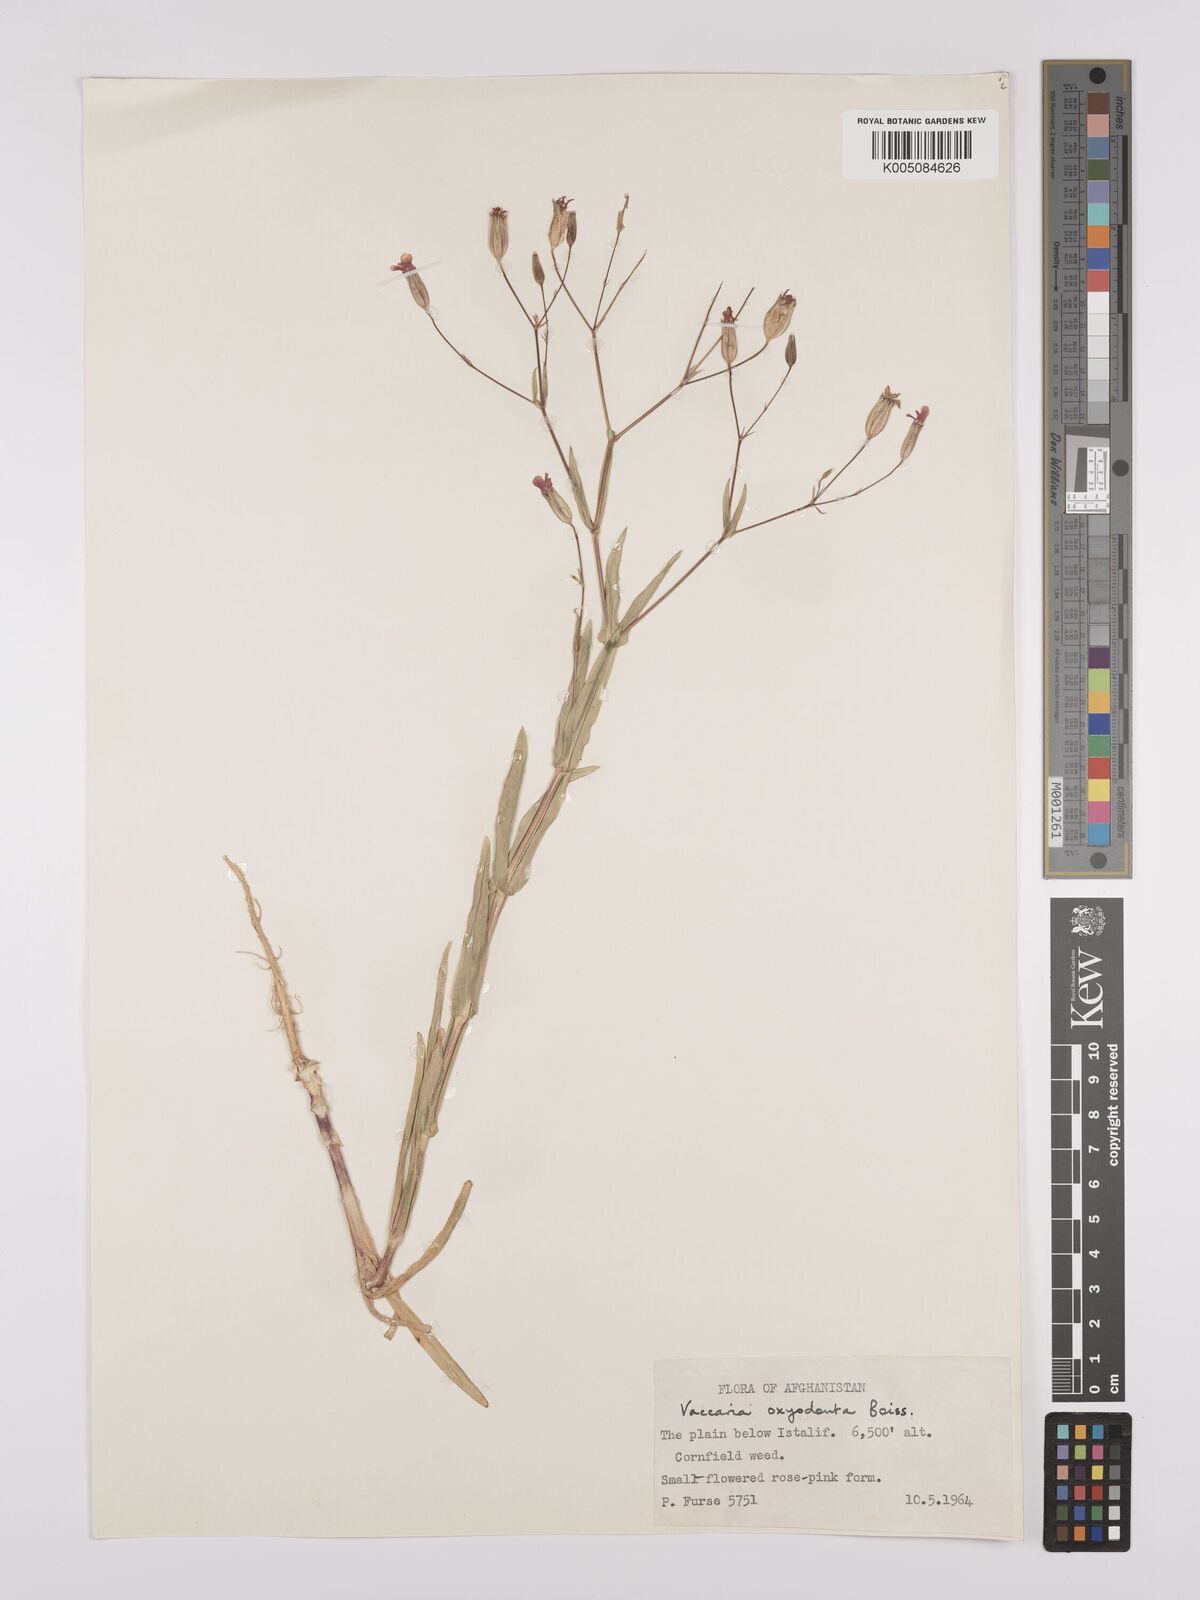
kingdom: Plantae
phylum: Tracheophyta
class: Magnoliopsida
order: Caryophyllales
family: Caryophyllaceae
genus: Gypsophila
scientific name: Gypsophila vaccaria
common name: Cow soapwort
